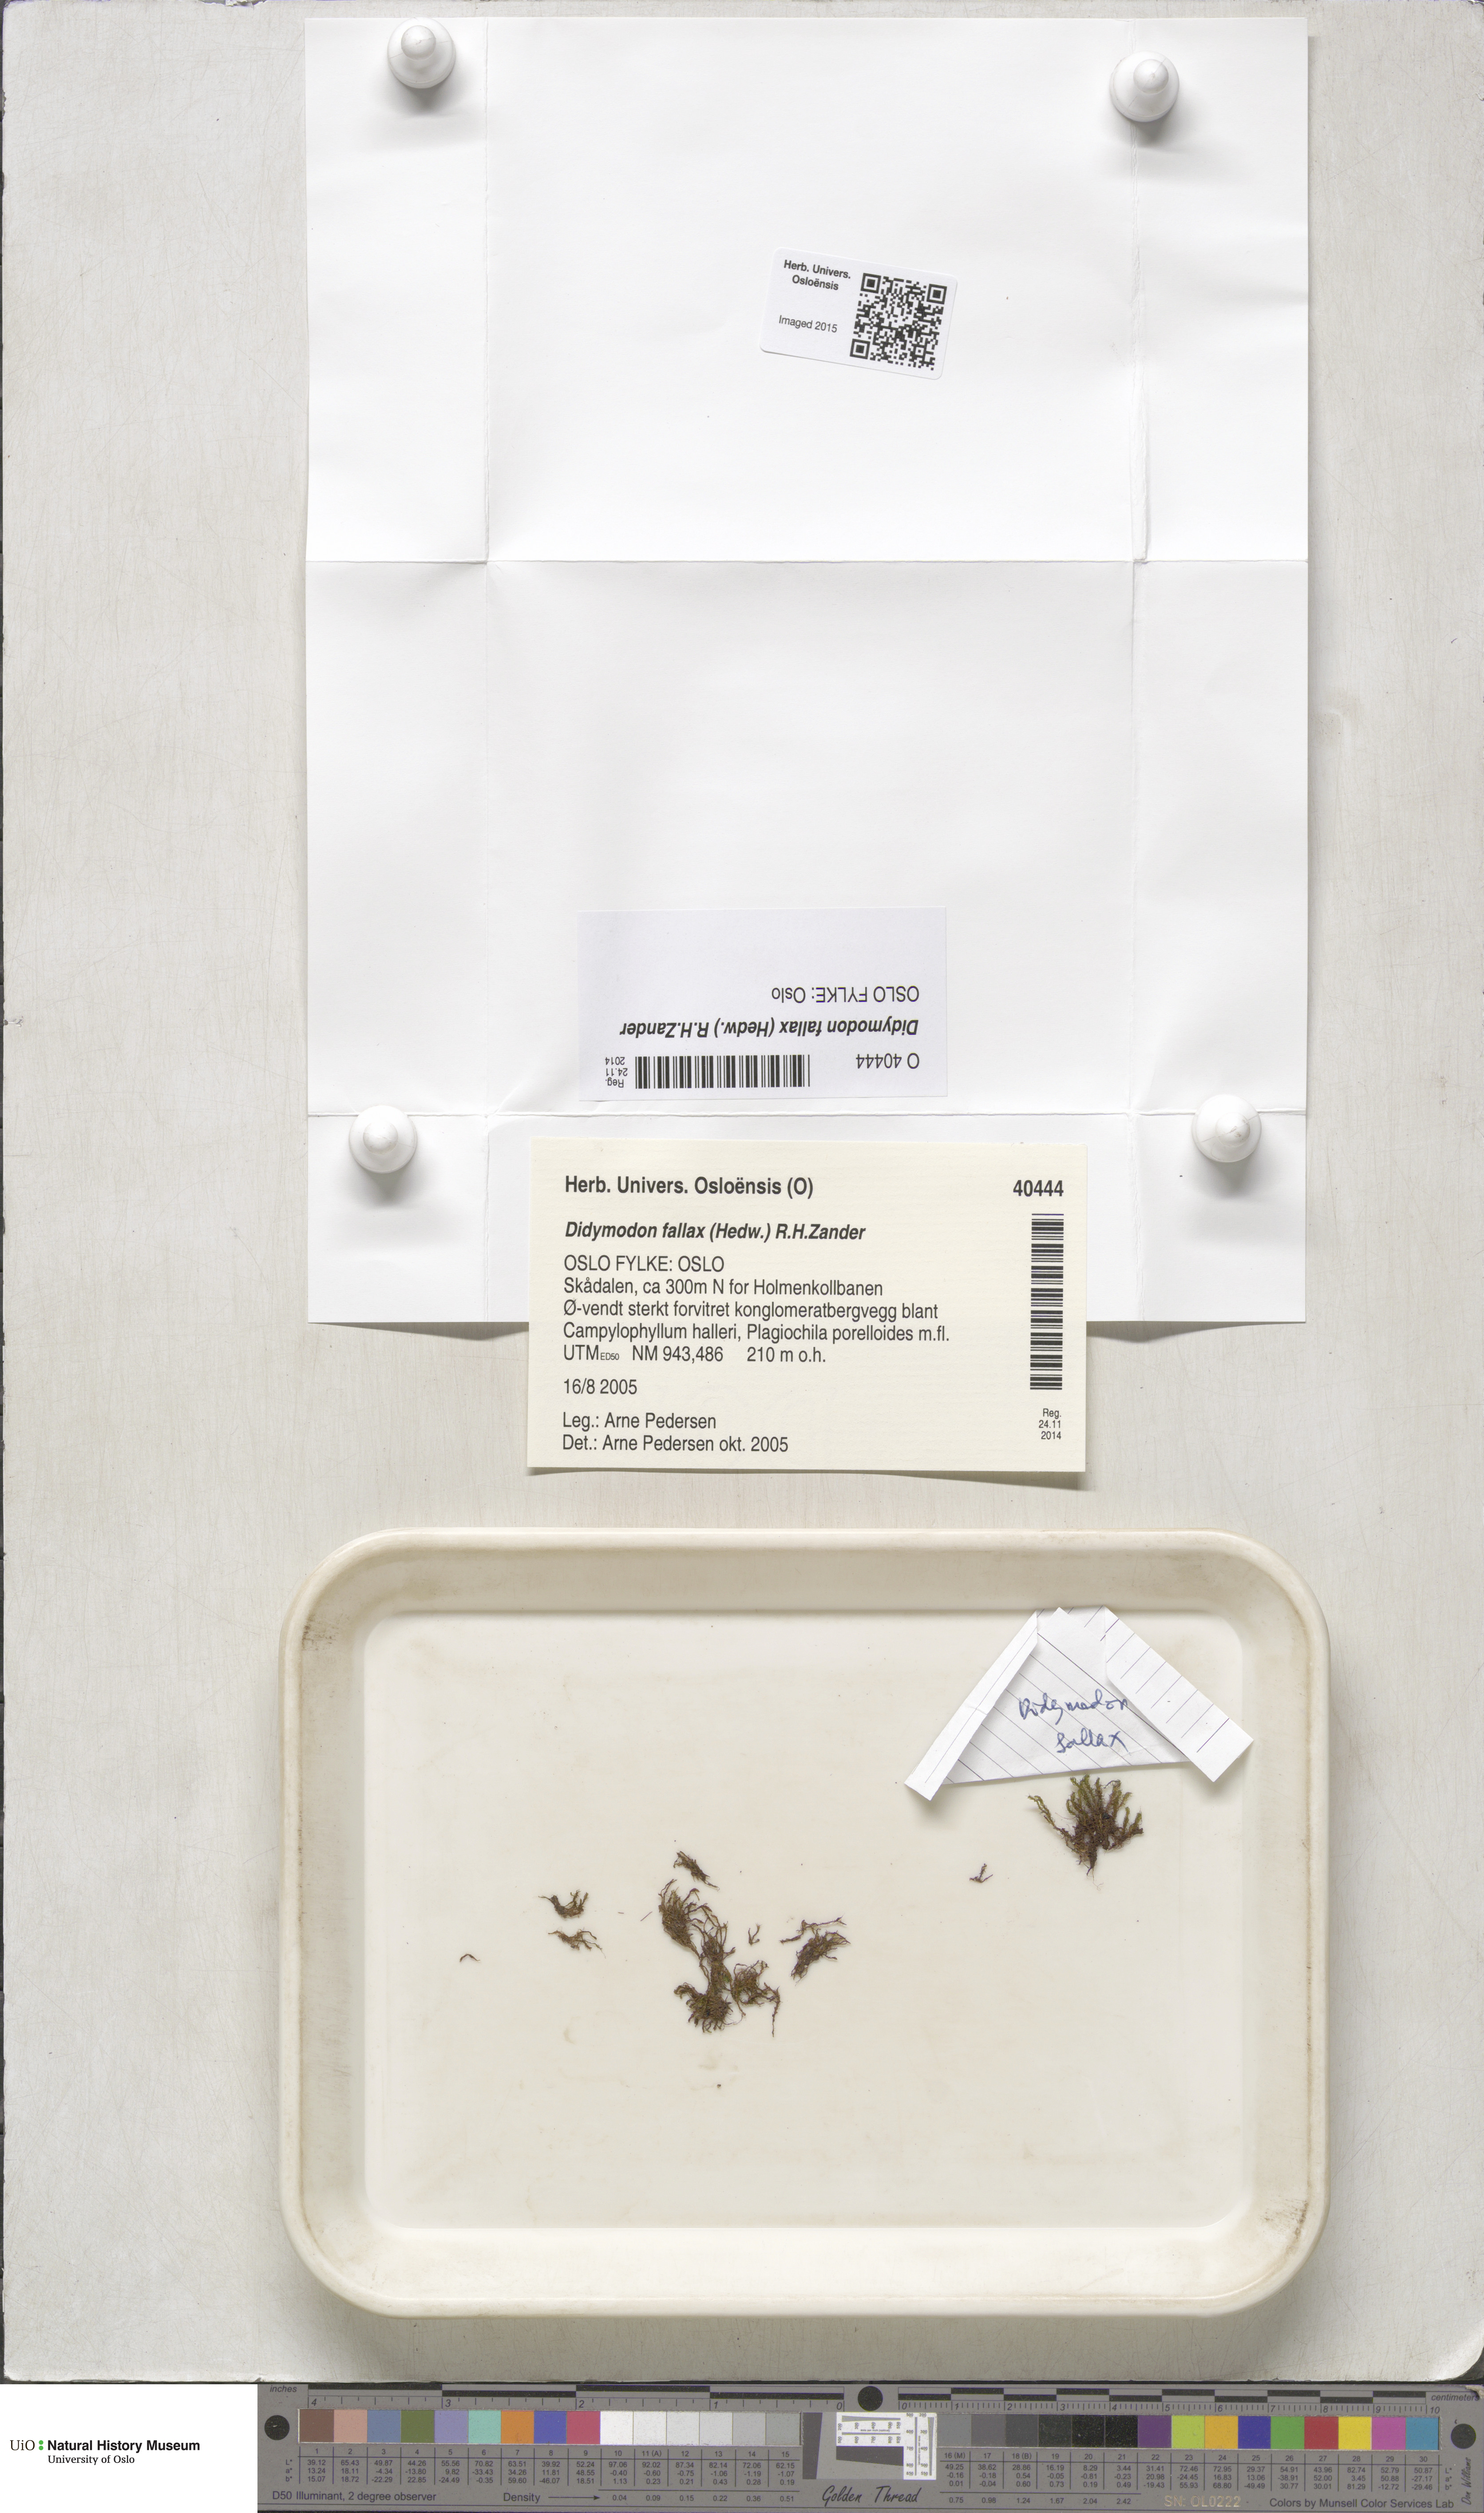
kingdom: Plantae
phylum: Bryophyta
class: Bryopsida
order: Pottiales
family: Pottiaceae
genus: Geheebia
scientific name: Geheebia fallax
